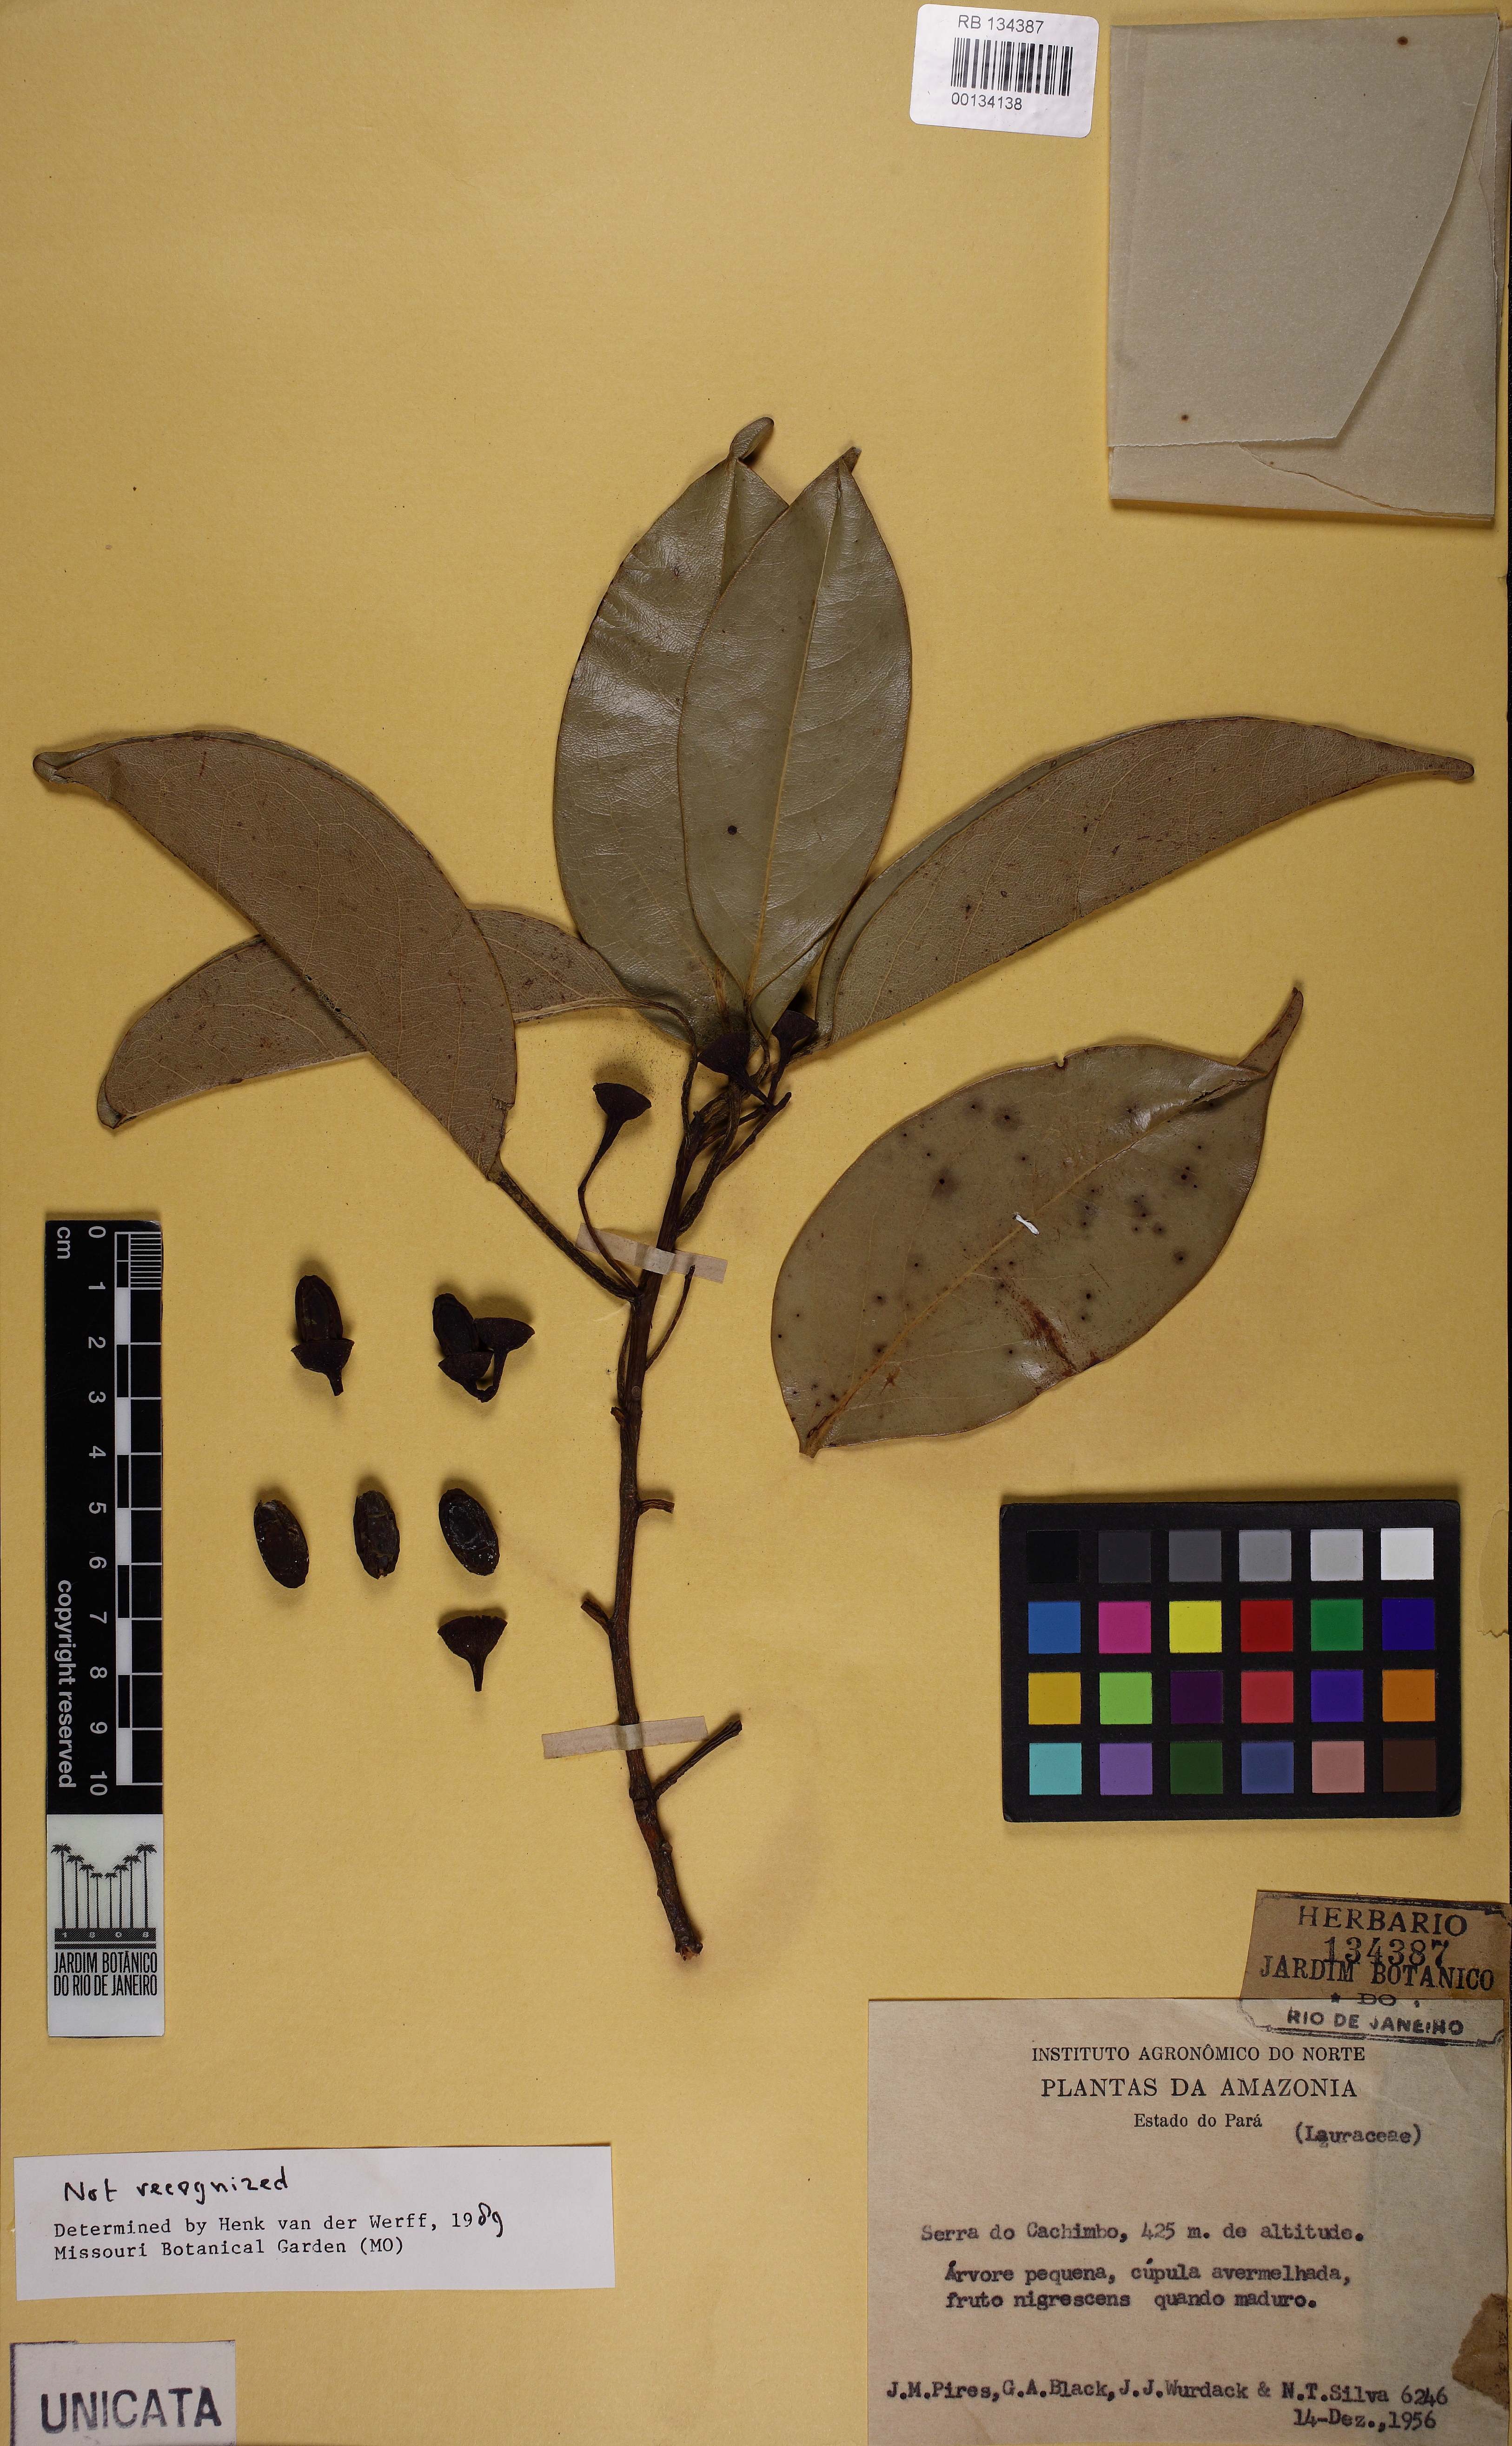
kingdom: Plantae
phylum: Tracheophyta
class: Magnoliopsida
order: Laurales
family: Lauraceae
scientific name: Lauraceae
